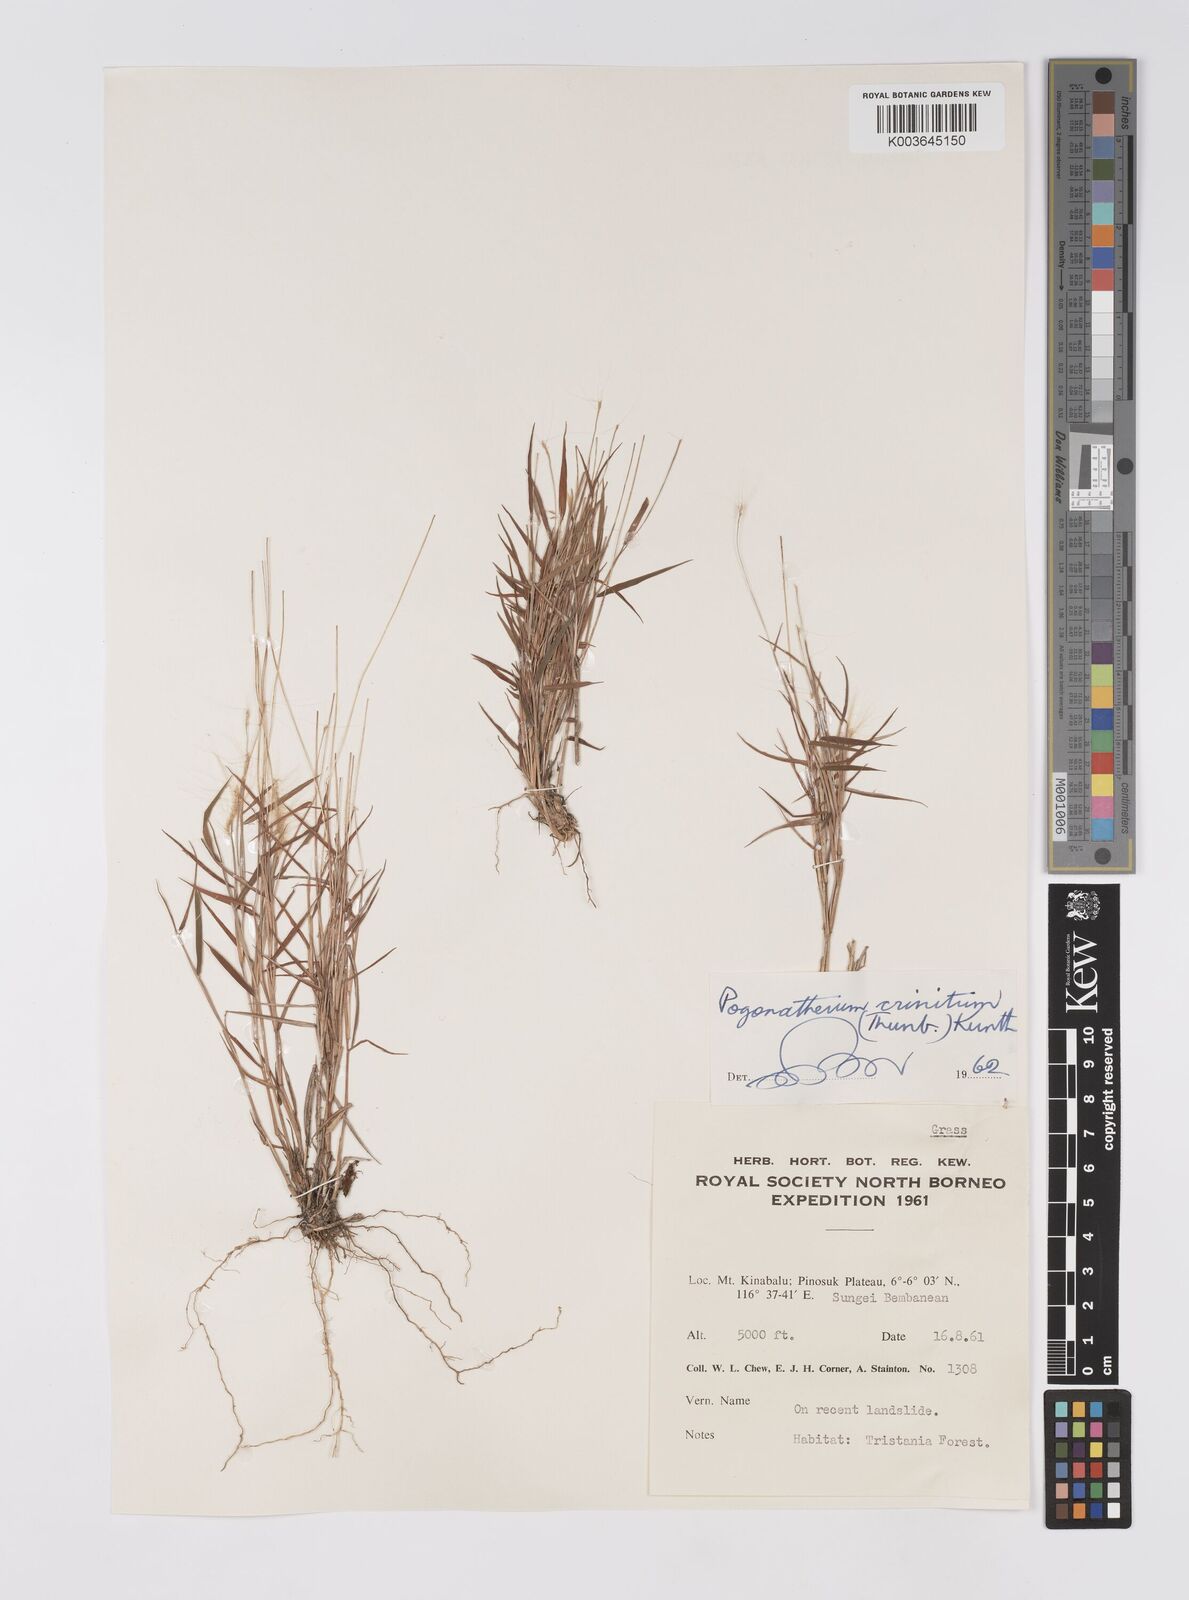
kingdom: Plantae
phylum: Tracheophyta
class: Liliopsida
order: Poales
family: Poaceae
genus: Pogonatherum
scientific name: Pogonatherum crinitum
